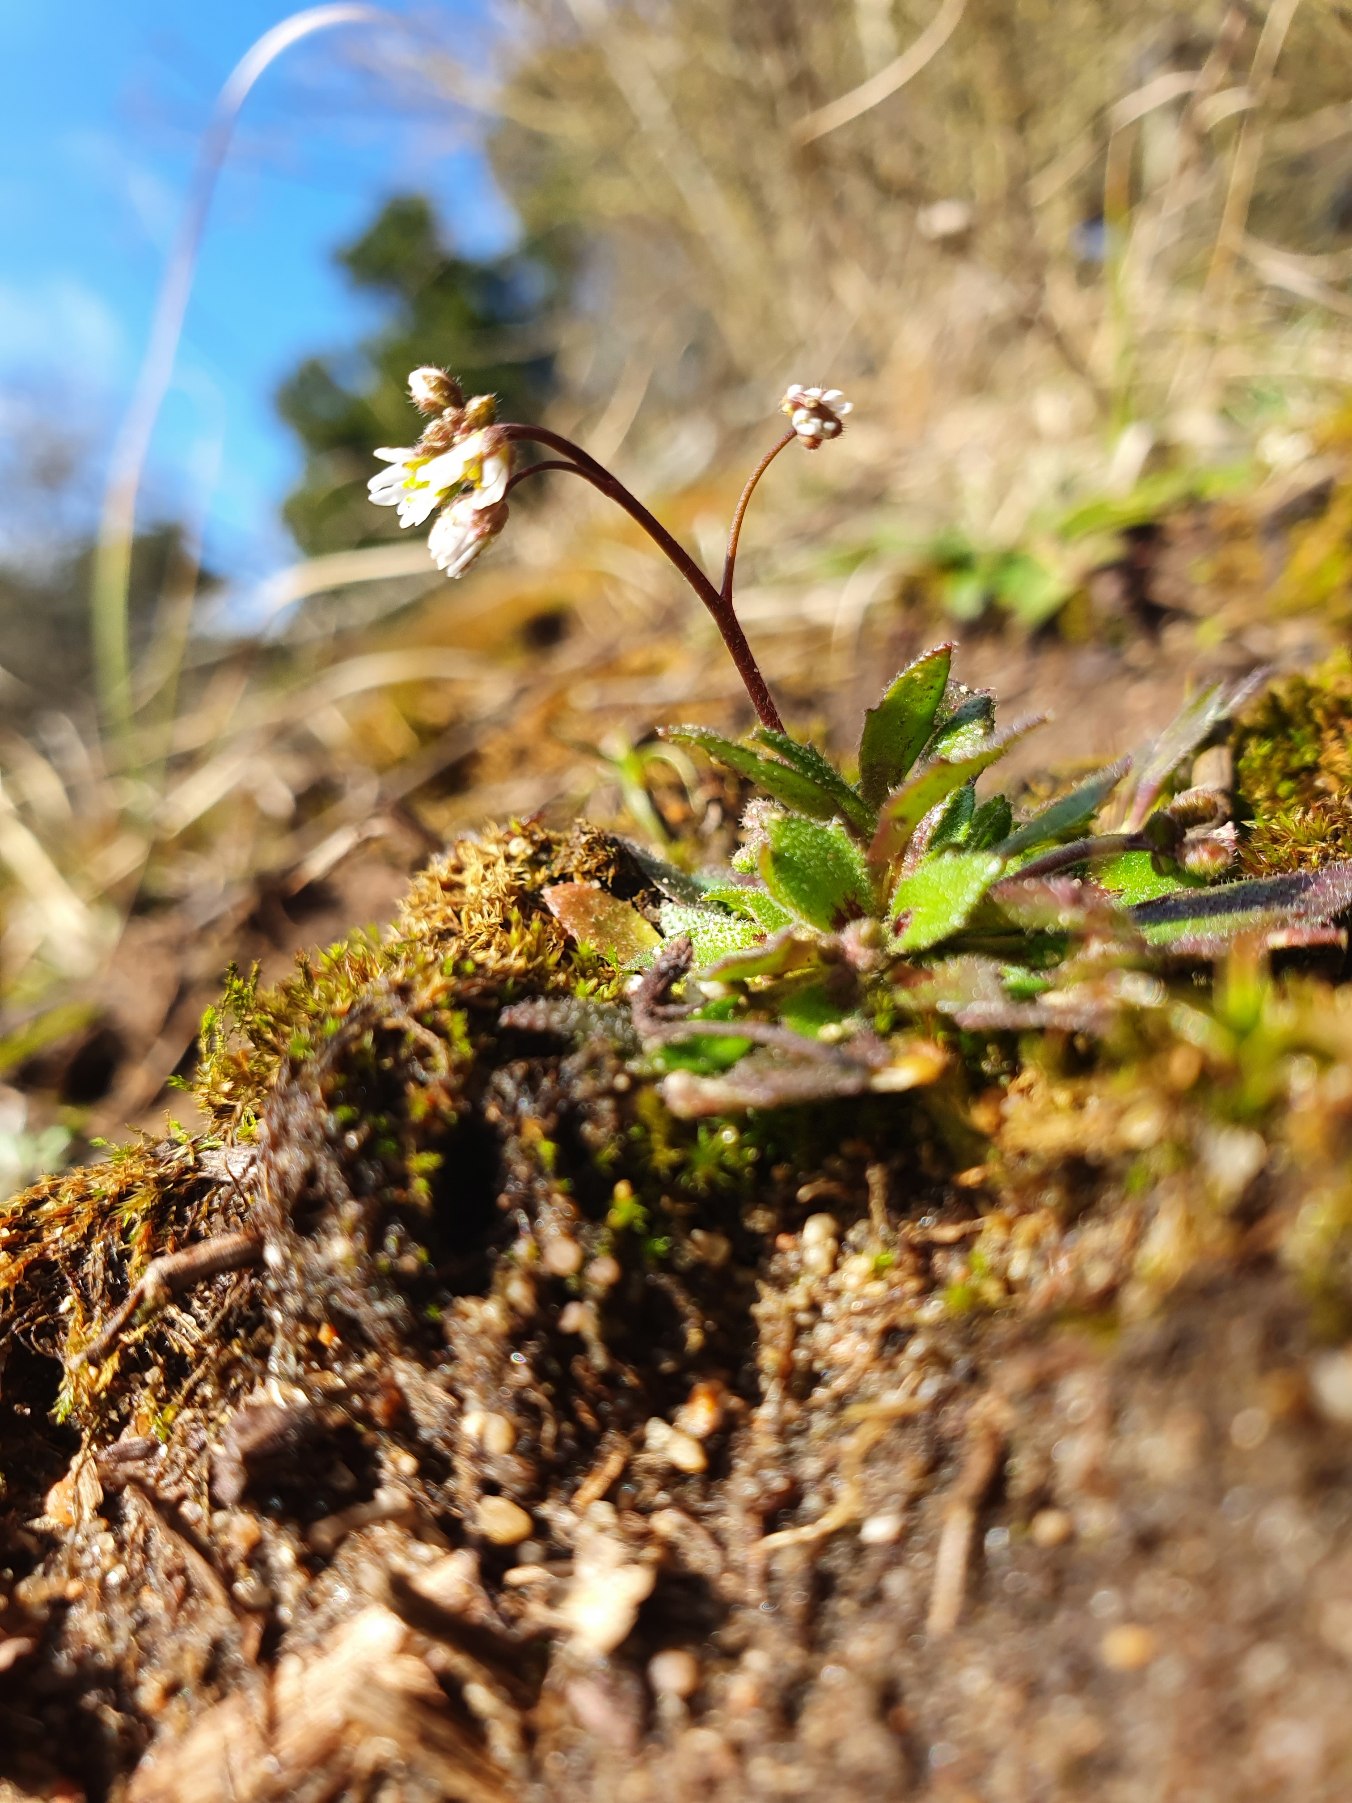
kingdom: Plantae
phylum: Tracheophyta
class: Magnoliopsida
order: Brassicales
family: Brassicaceae
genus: Draba
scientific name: Draba verna
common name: Vår-gæslingeblomst
